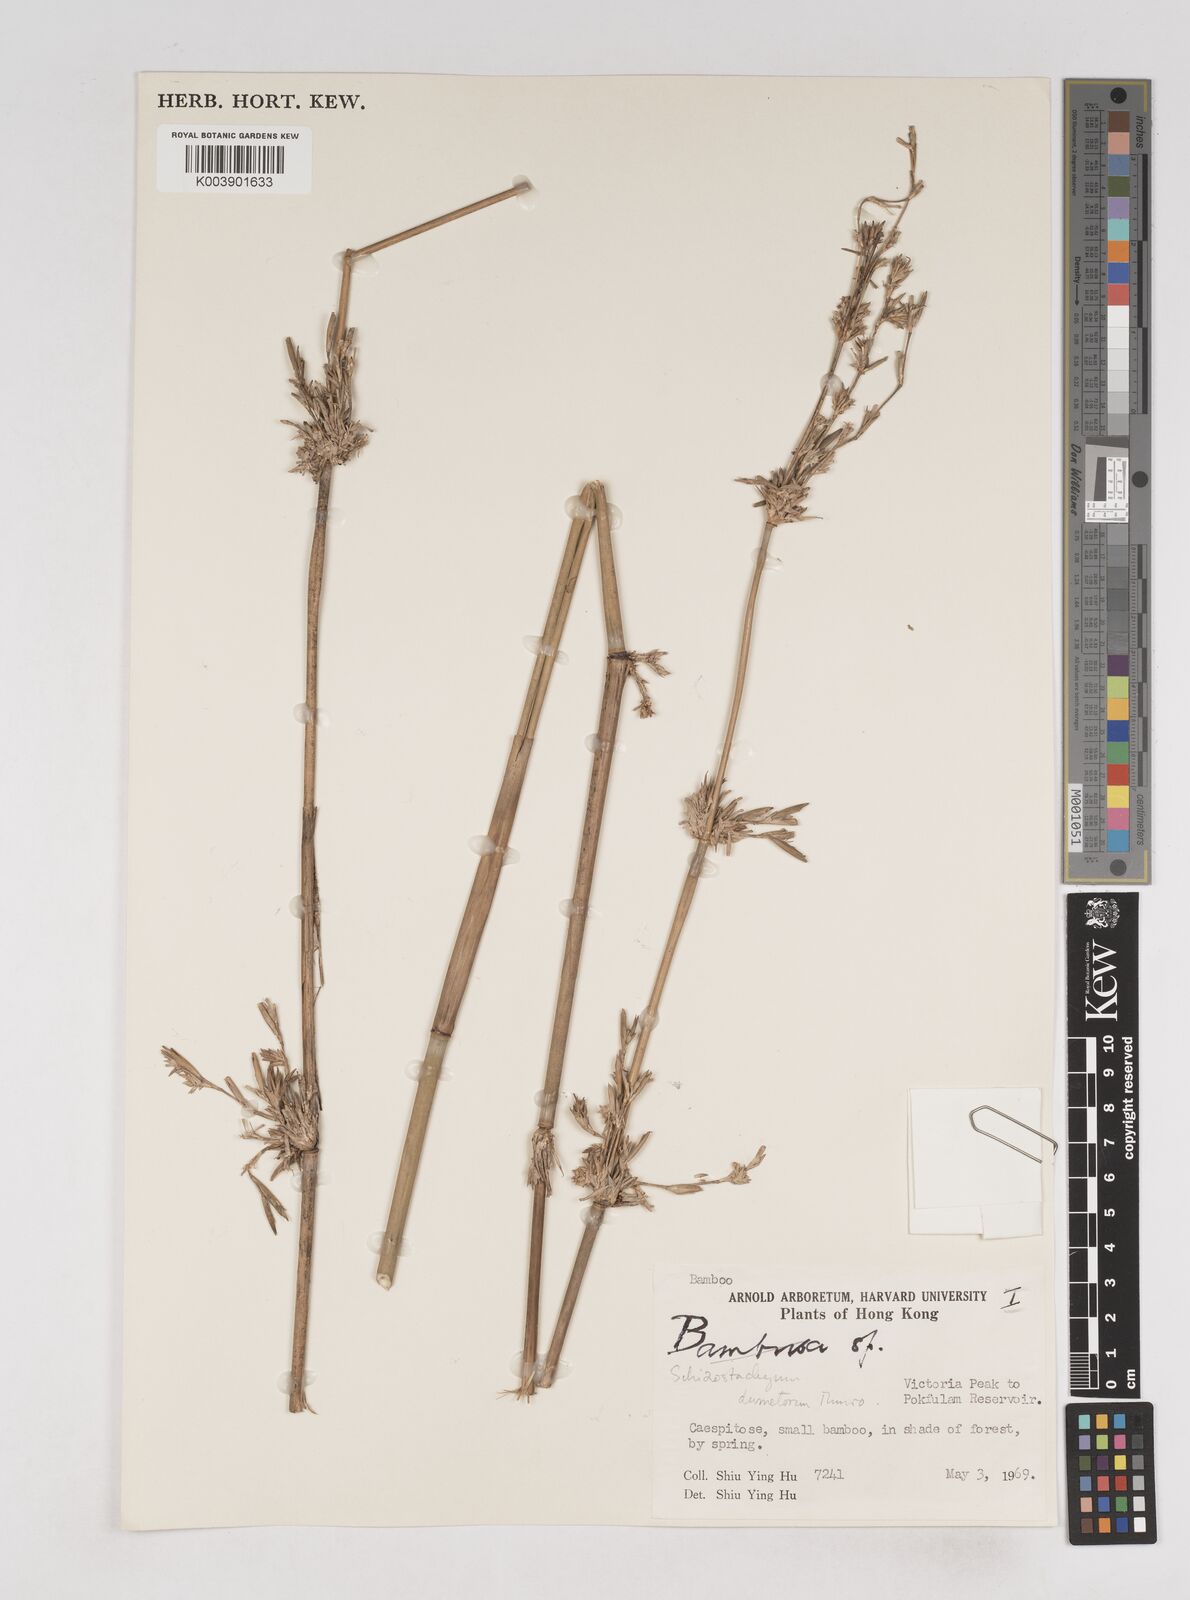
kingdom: Plantae
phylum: Tracheophyta
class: Liliopsida
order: Poales
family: Poaceae
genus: Schizostachyum
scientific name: Schizostachyum dumetorum
